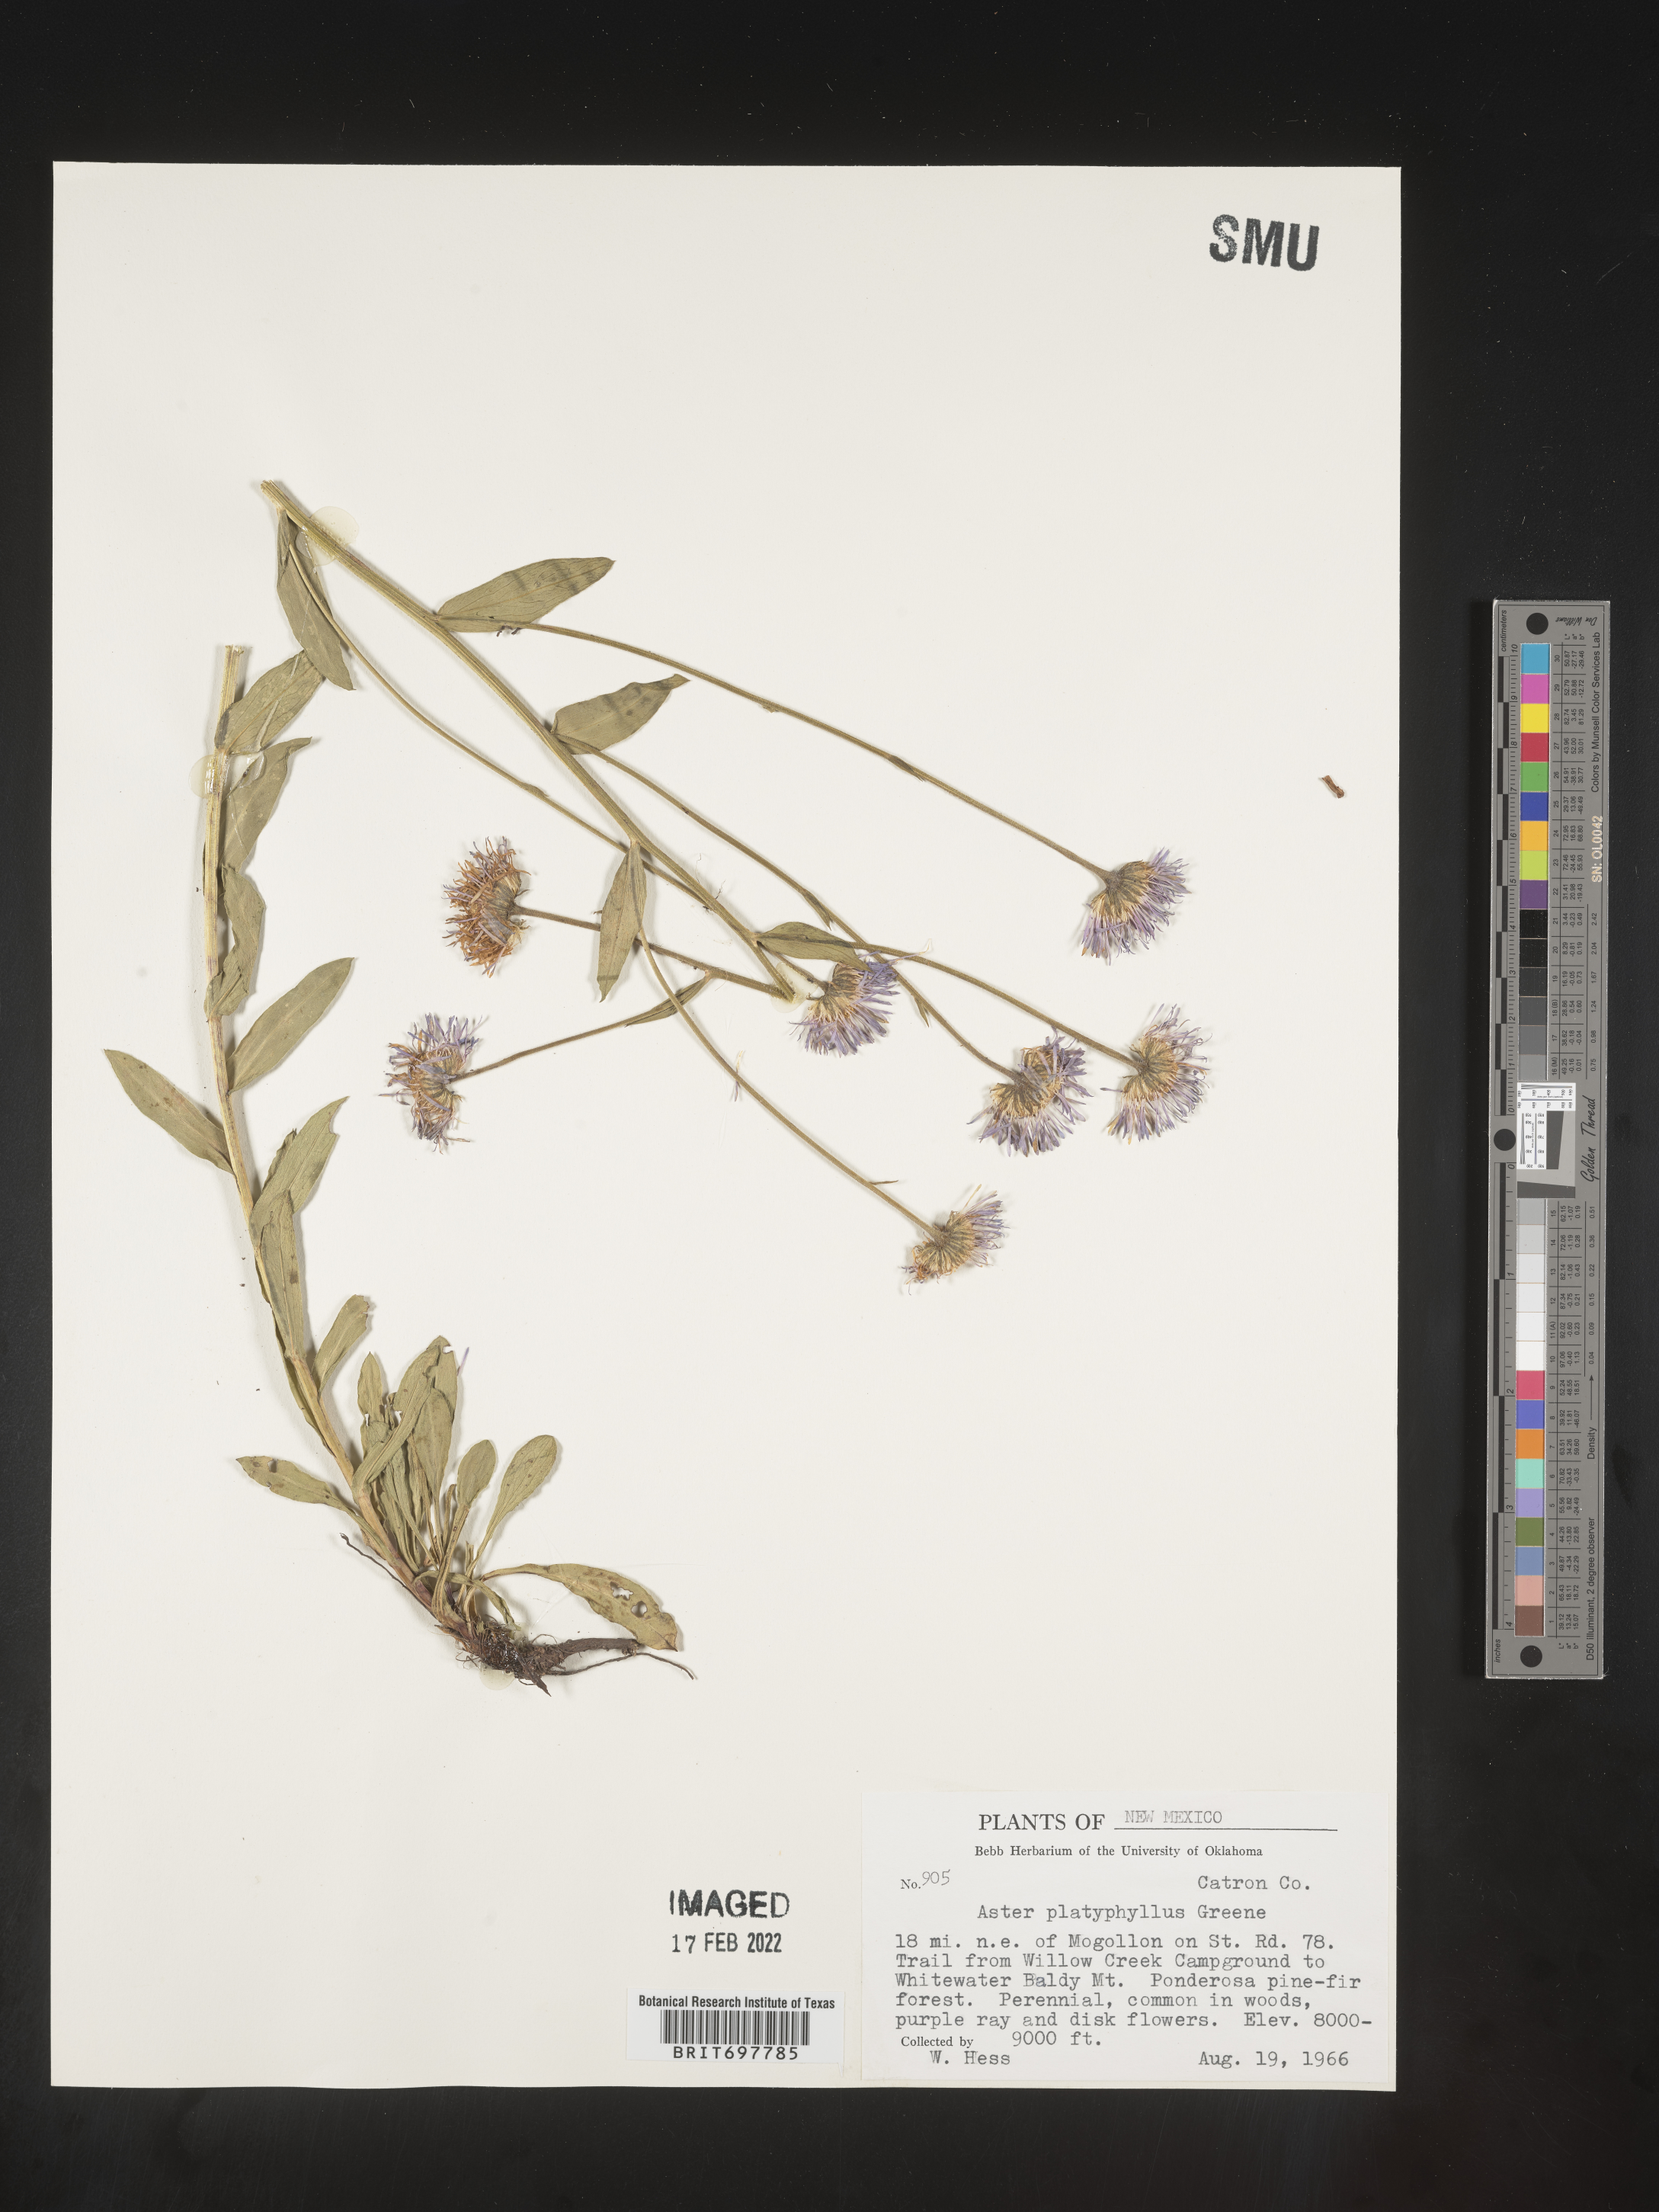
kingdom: Plantae
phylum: Tracheophyta
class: Magnoliopsida
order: Asterales
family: Asteraceae
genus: Erigeron
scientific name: Erigeron formosissimus
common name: Beautiful fleabane
